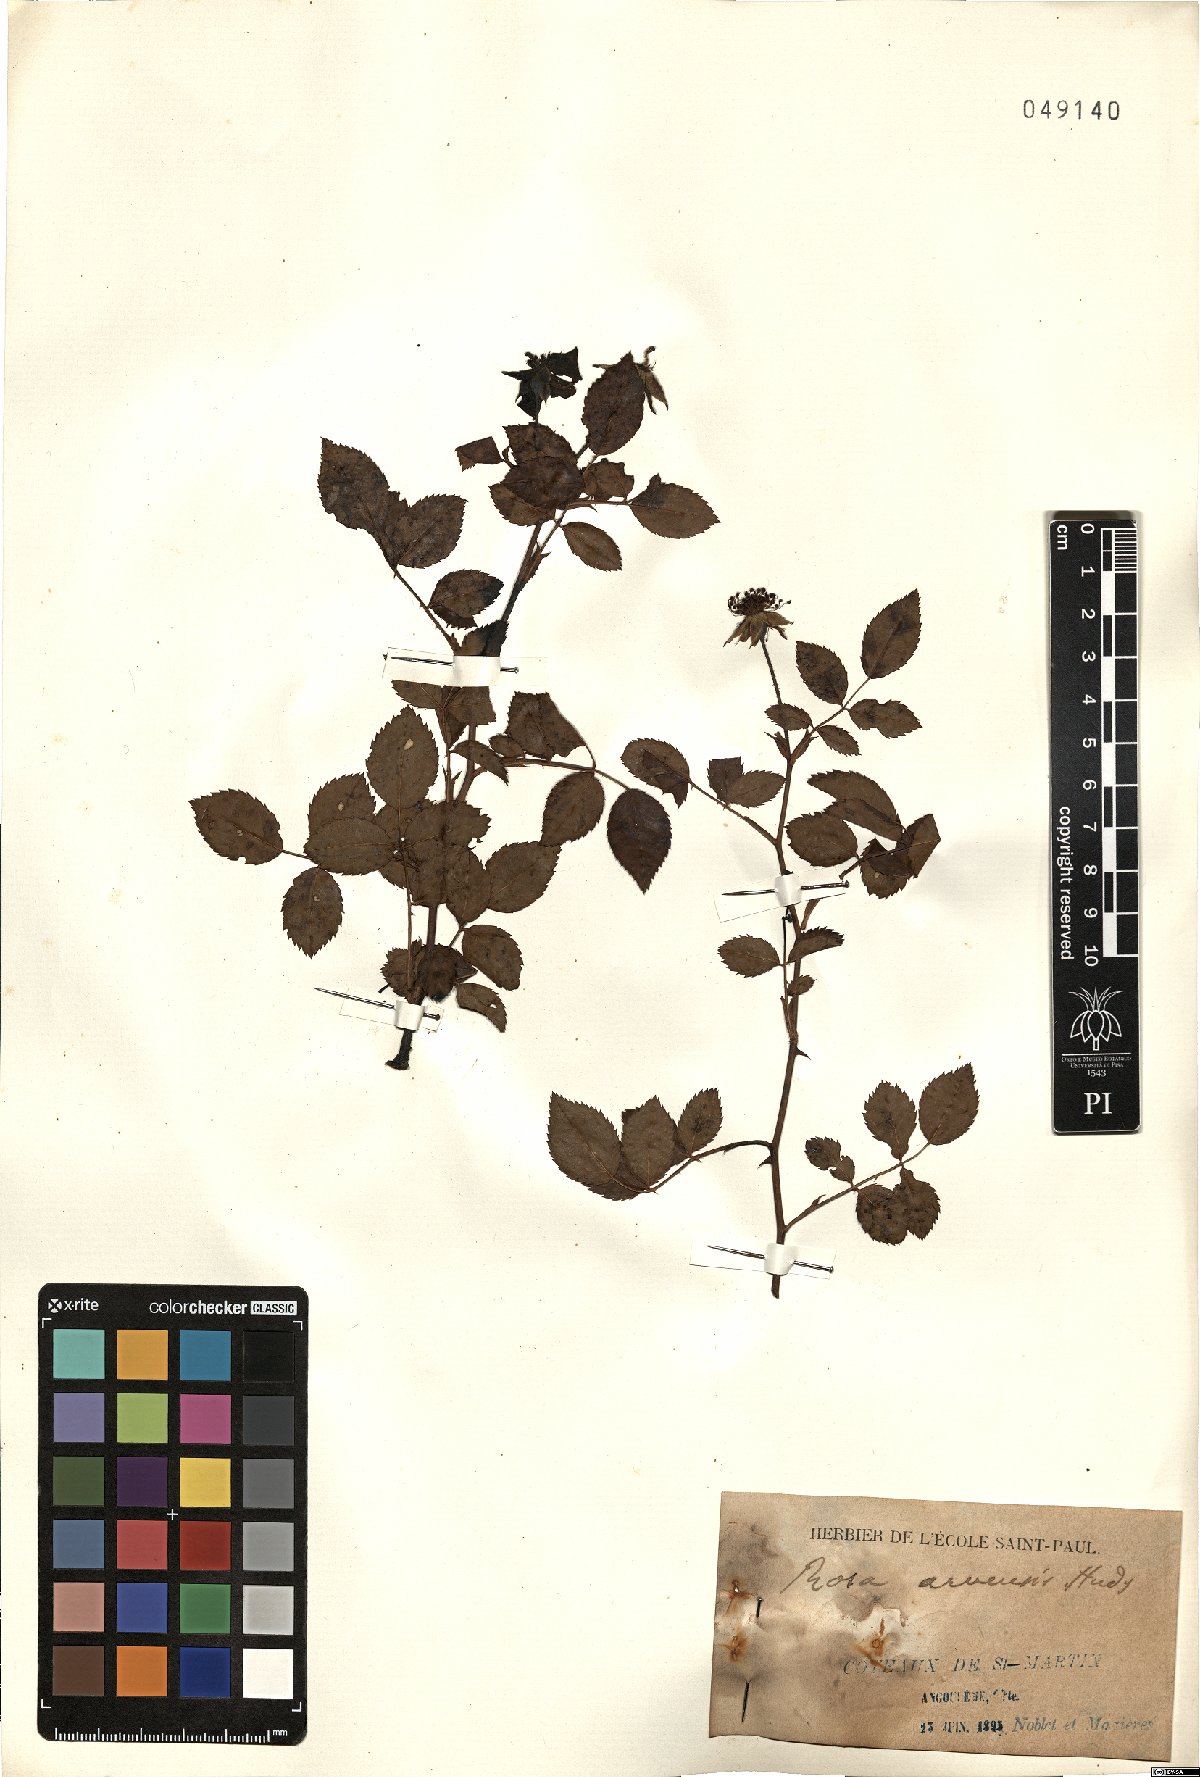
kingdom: Plantae
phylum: Tracheophyta
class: Magnoliopsida
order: Rosales
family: Rosaceae
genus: Rosa
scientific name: Rosa arvensis
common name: Field rose
